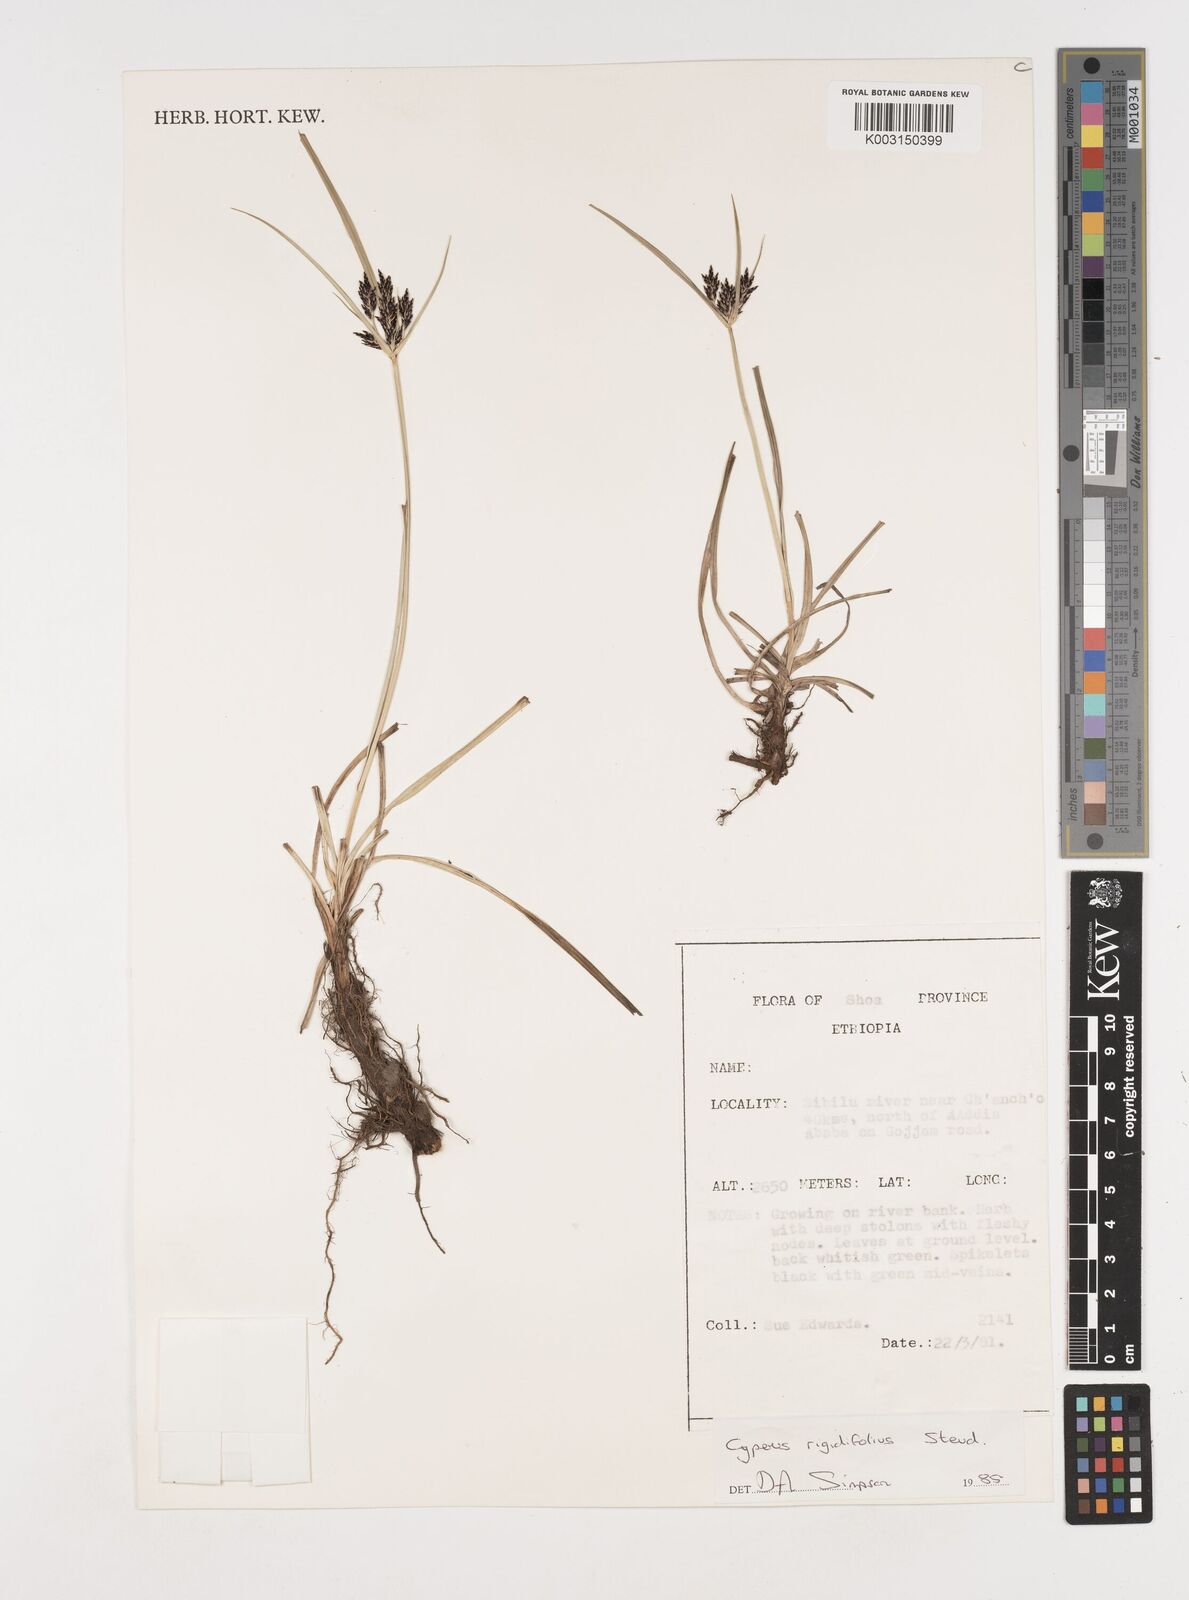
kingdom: Plantae
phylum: Tracheophyta
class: Liliopsida
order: Poales
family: Cyperaceae
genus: Cyperus
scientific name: Cyperus rigidifolius
